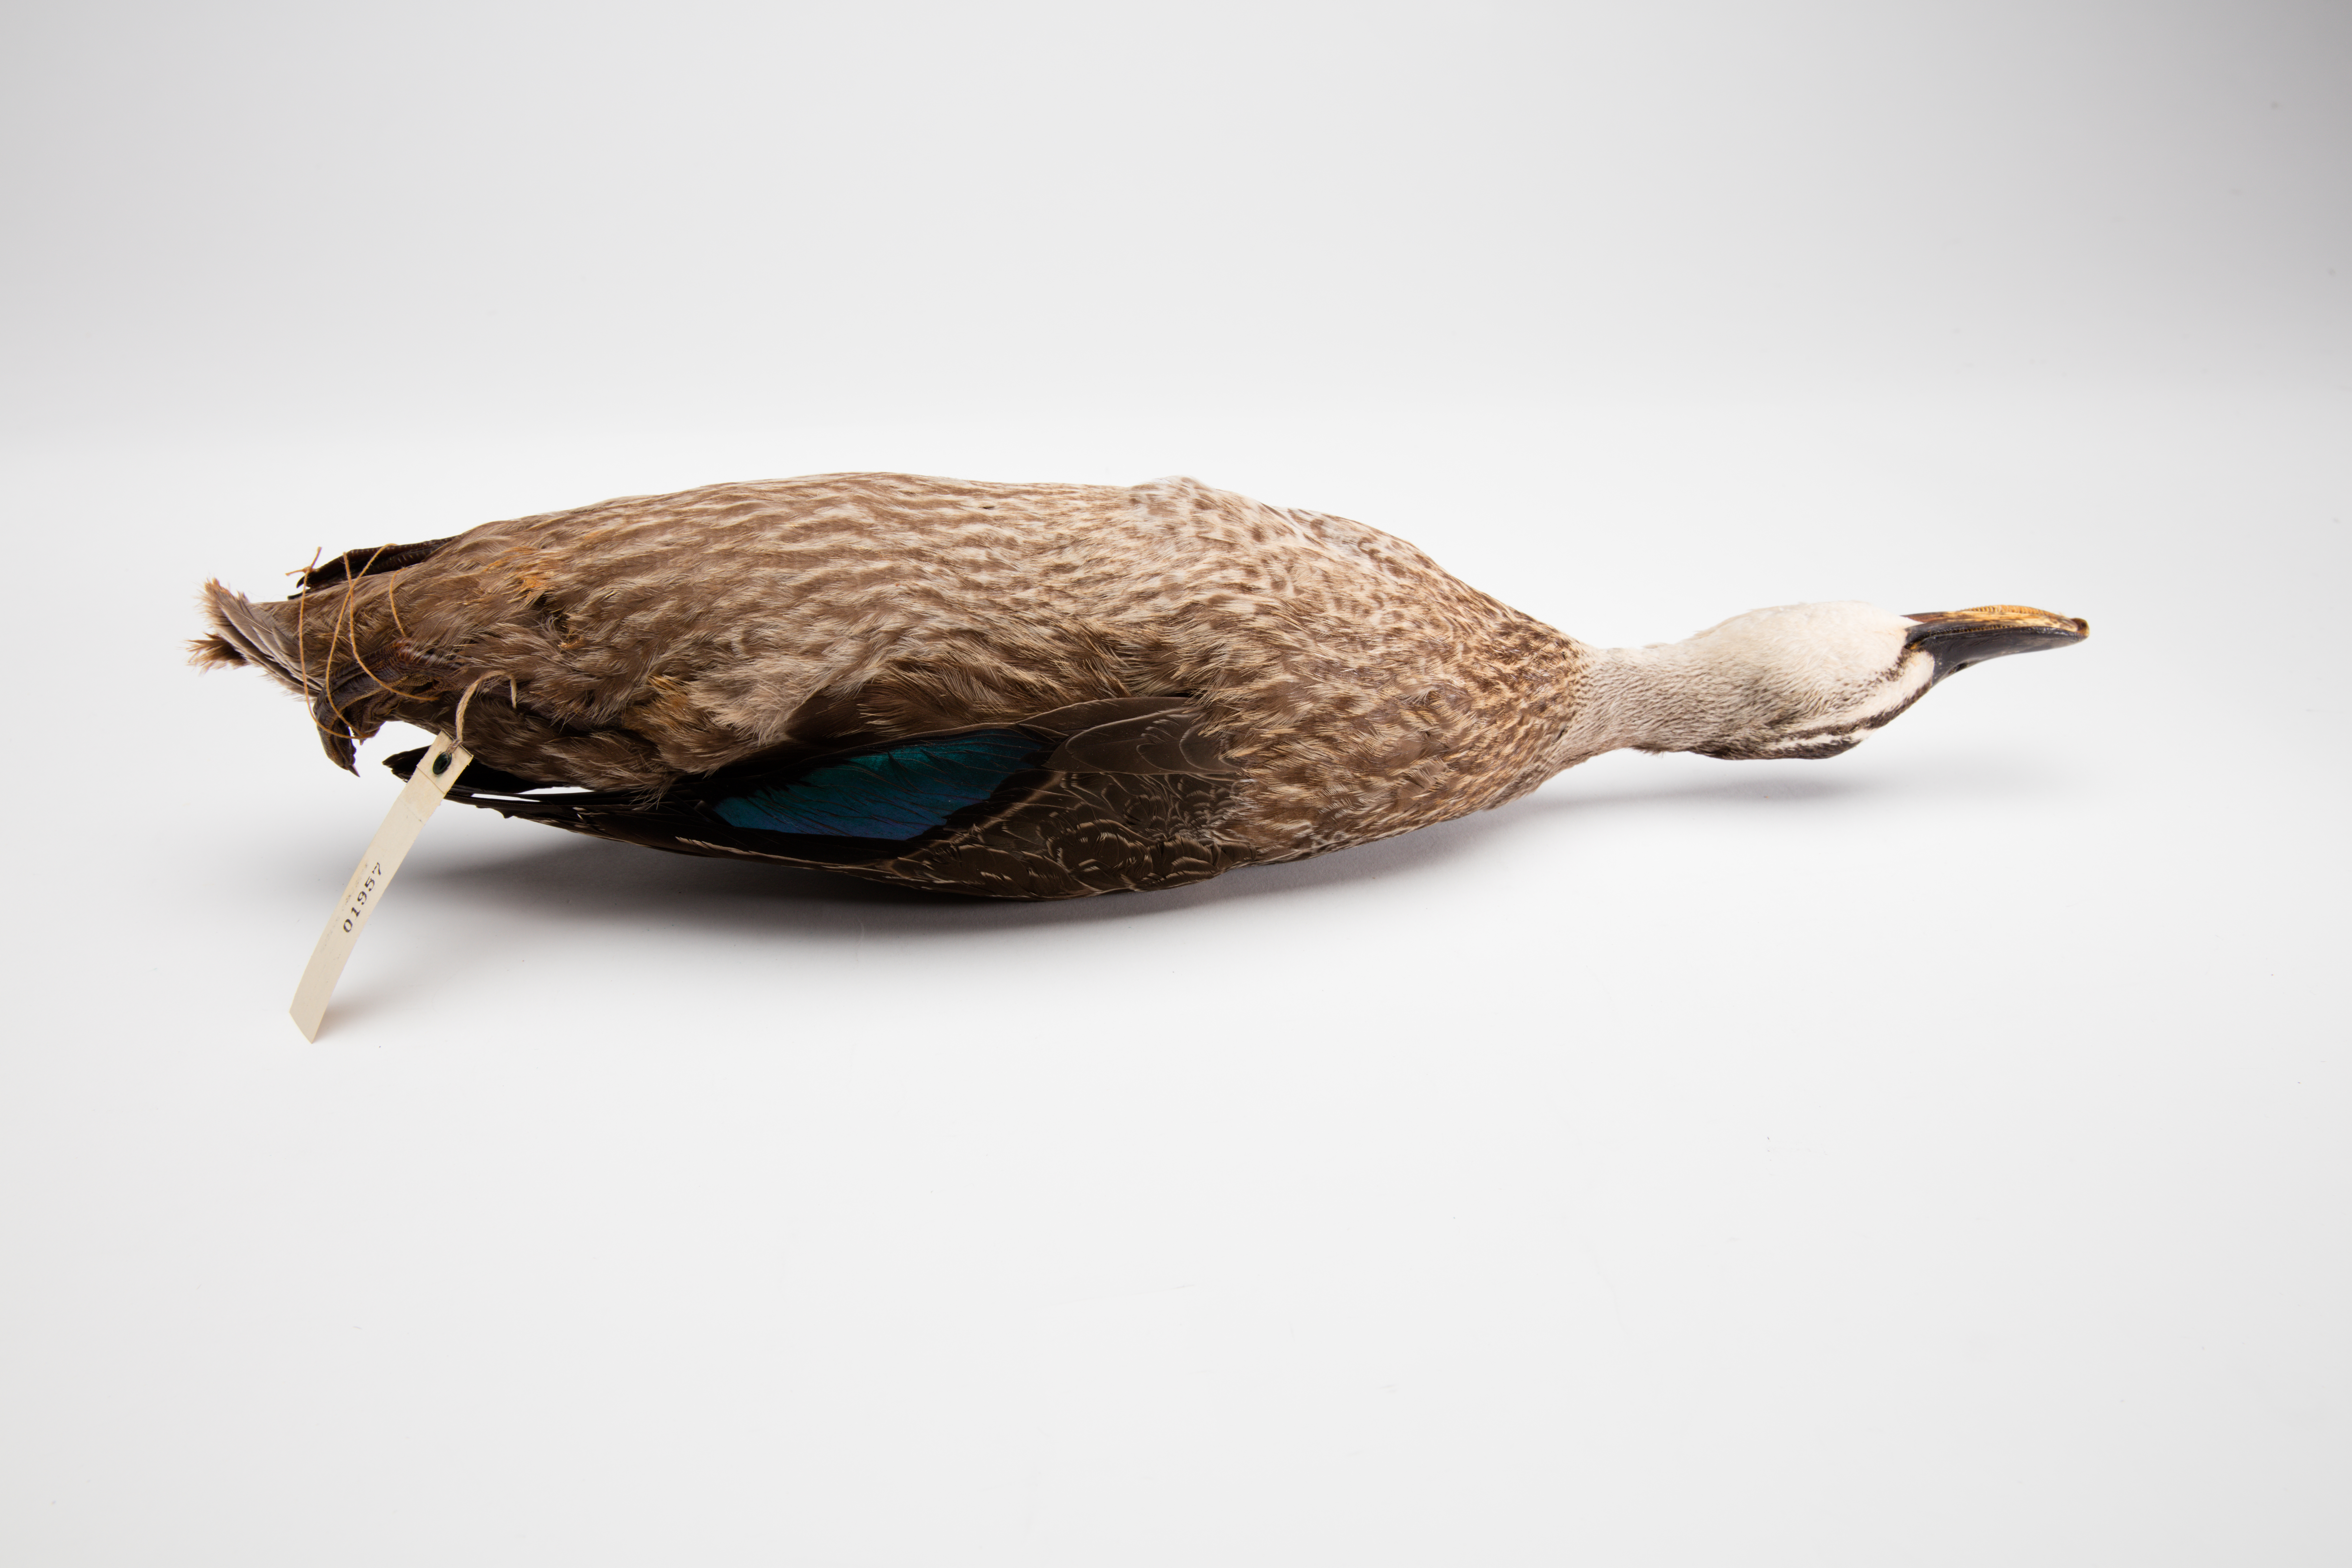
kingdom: Animalia
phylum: Chordata
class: Aves
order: Anseriformes
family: Anatidae
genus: Anas
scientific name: Anas superciliosa
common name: Pacific black duck
